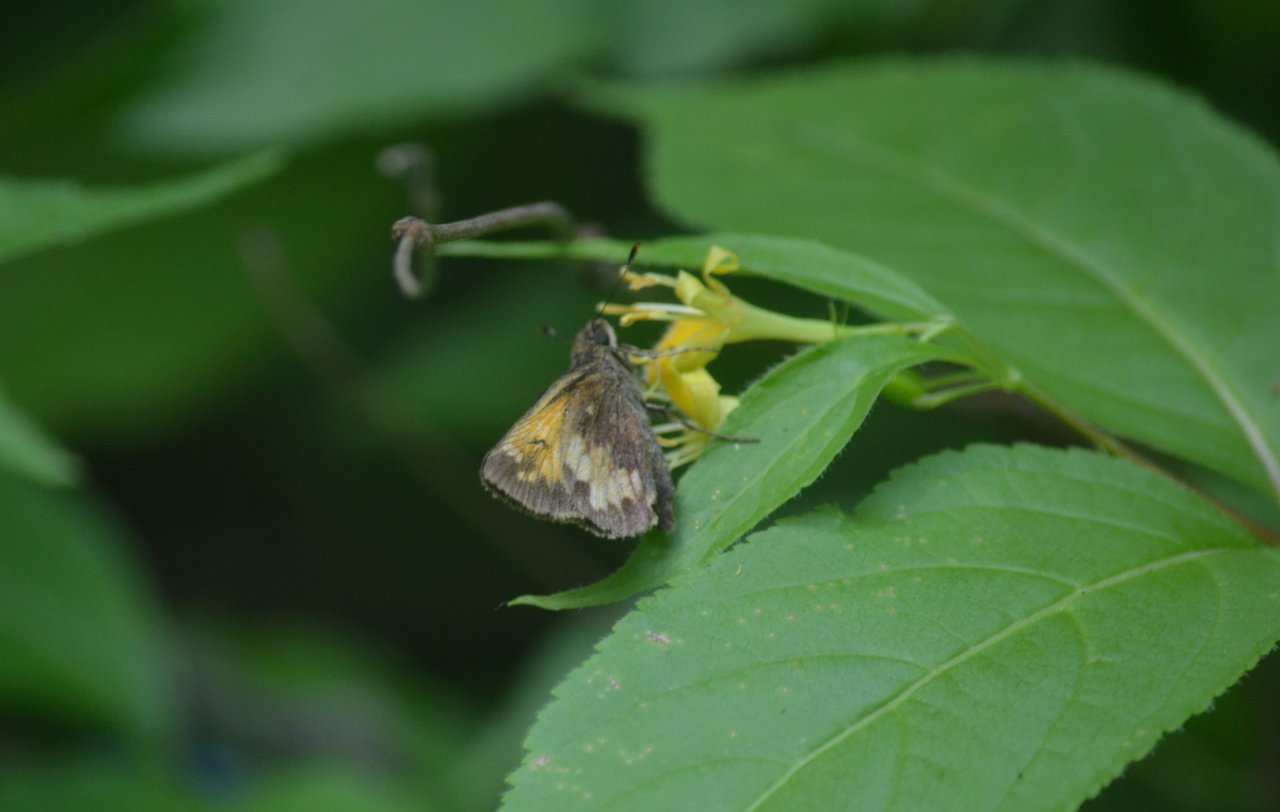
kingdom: Animalia
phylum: Arthropoda
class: Insecta
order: Lepidoptera
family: Hesperiidae
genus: Lon
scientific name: Lon hobomok
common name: Hobomok Skipper
